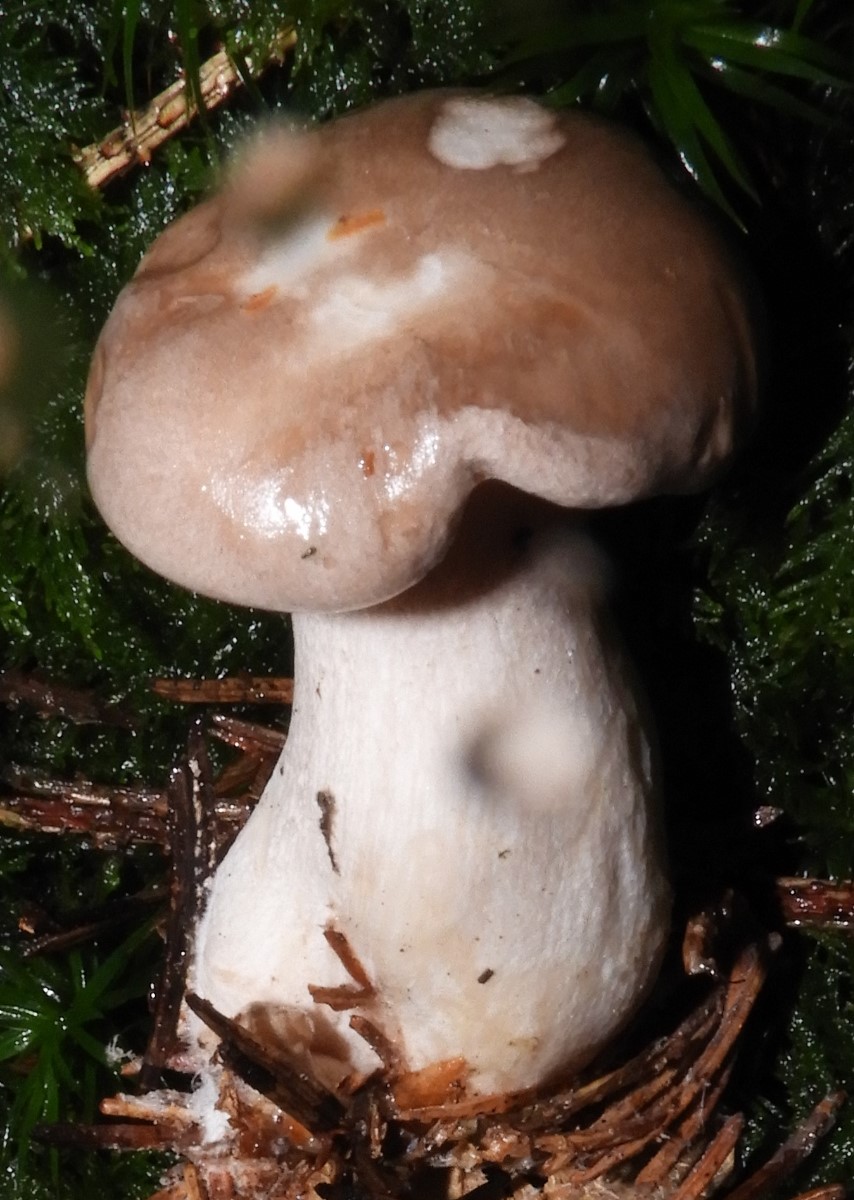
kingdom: Fungi
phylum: Basidiomycota
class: Agaricomycetes
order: Agaricales
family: Tricholomataceae
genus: Clitocybe
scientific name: Clitocybe nebularis
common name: tåge-tragthat
